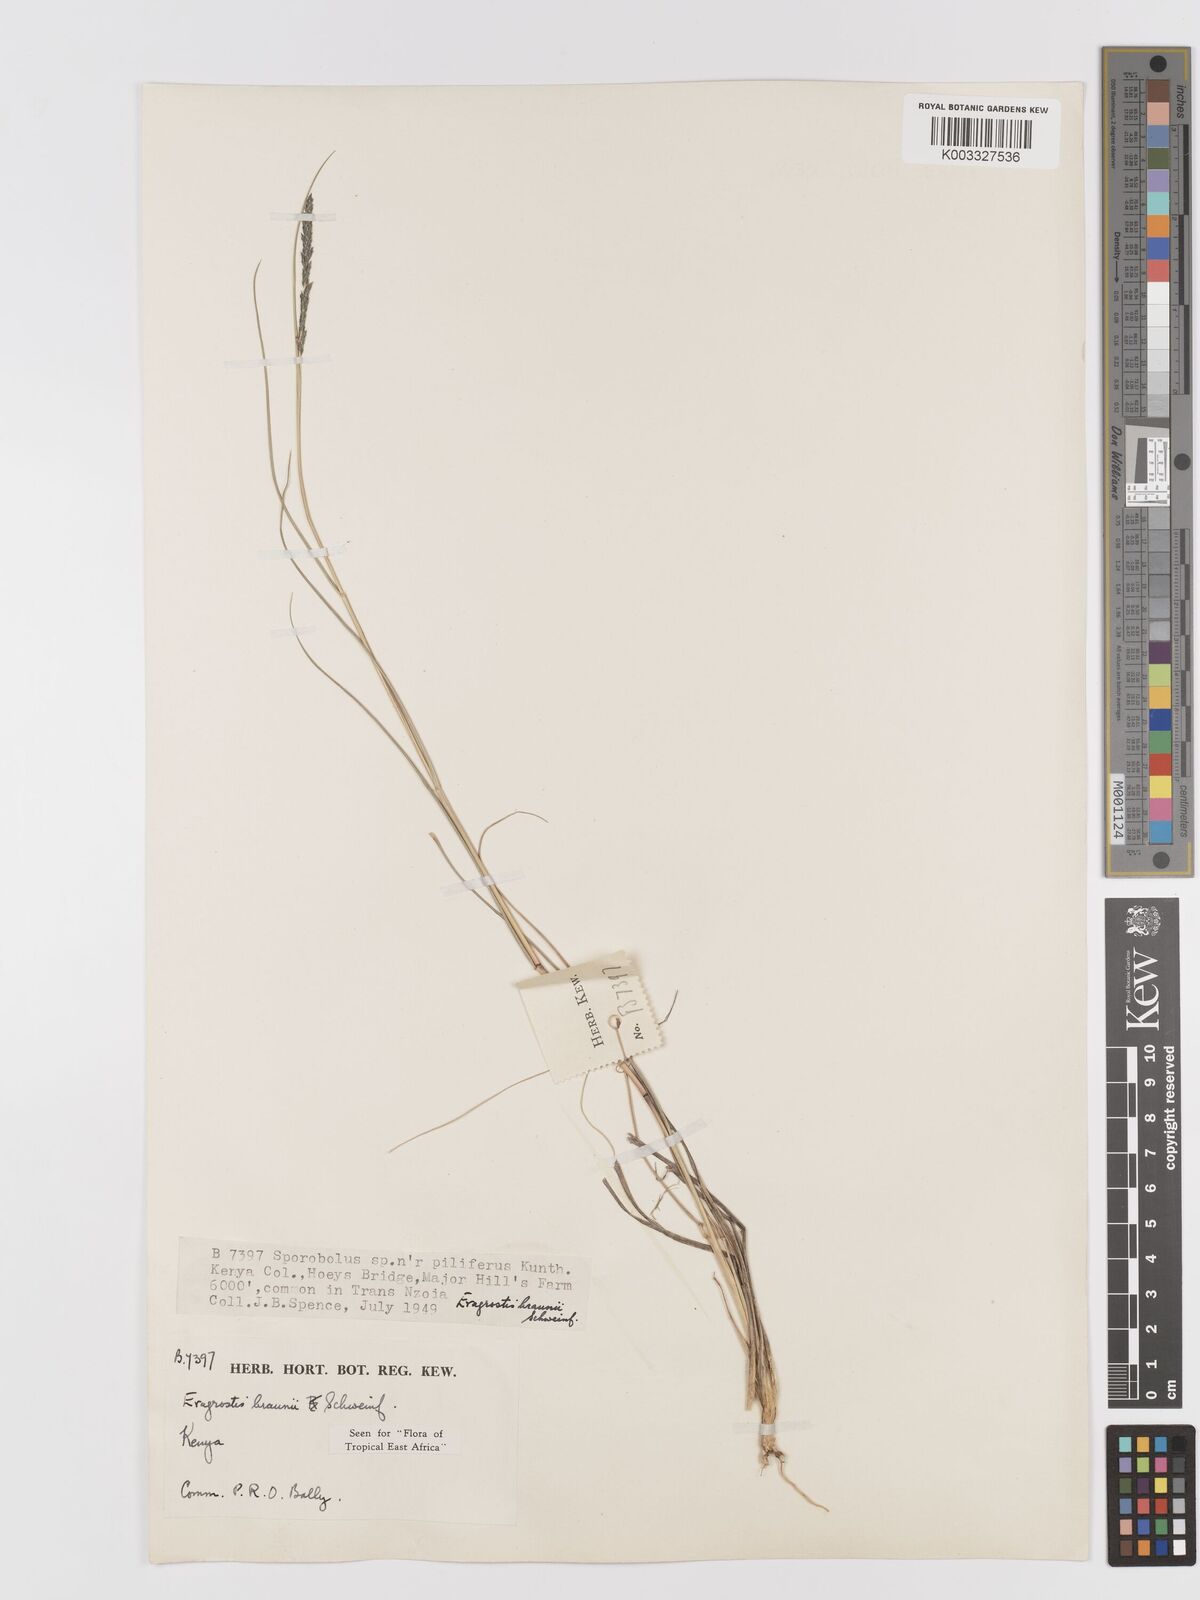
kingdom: Plantae
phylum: Tracheophyta
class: Liliopsida
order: Poales
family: Poaceae
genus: Eragrostis
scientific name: Eragrostis braunii
